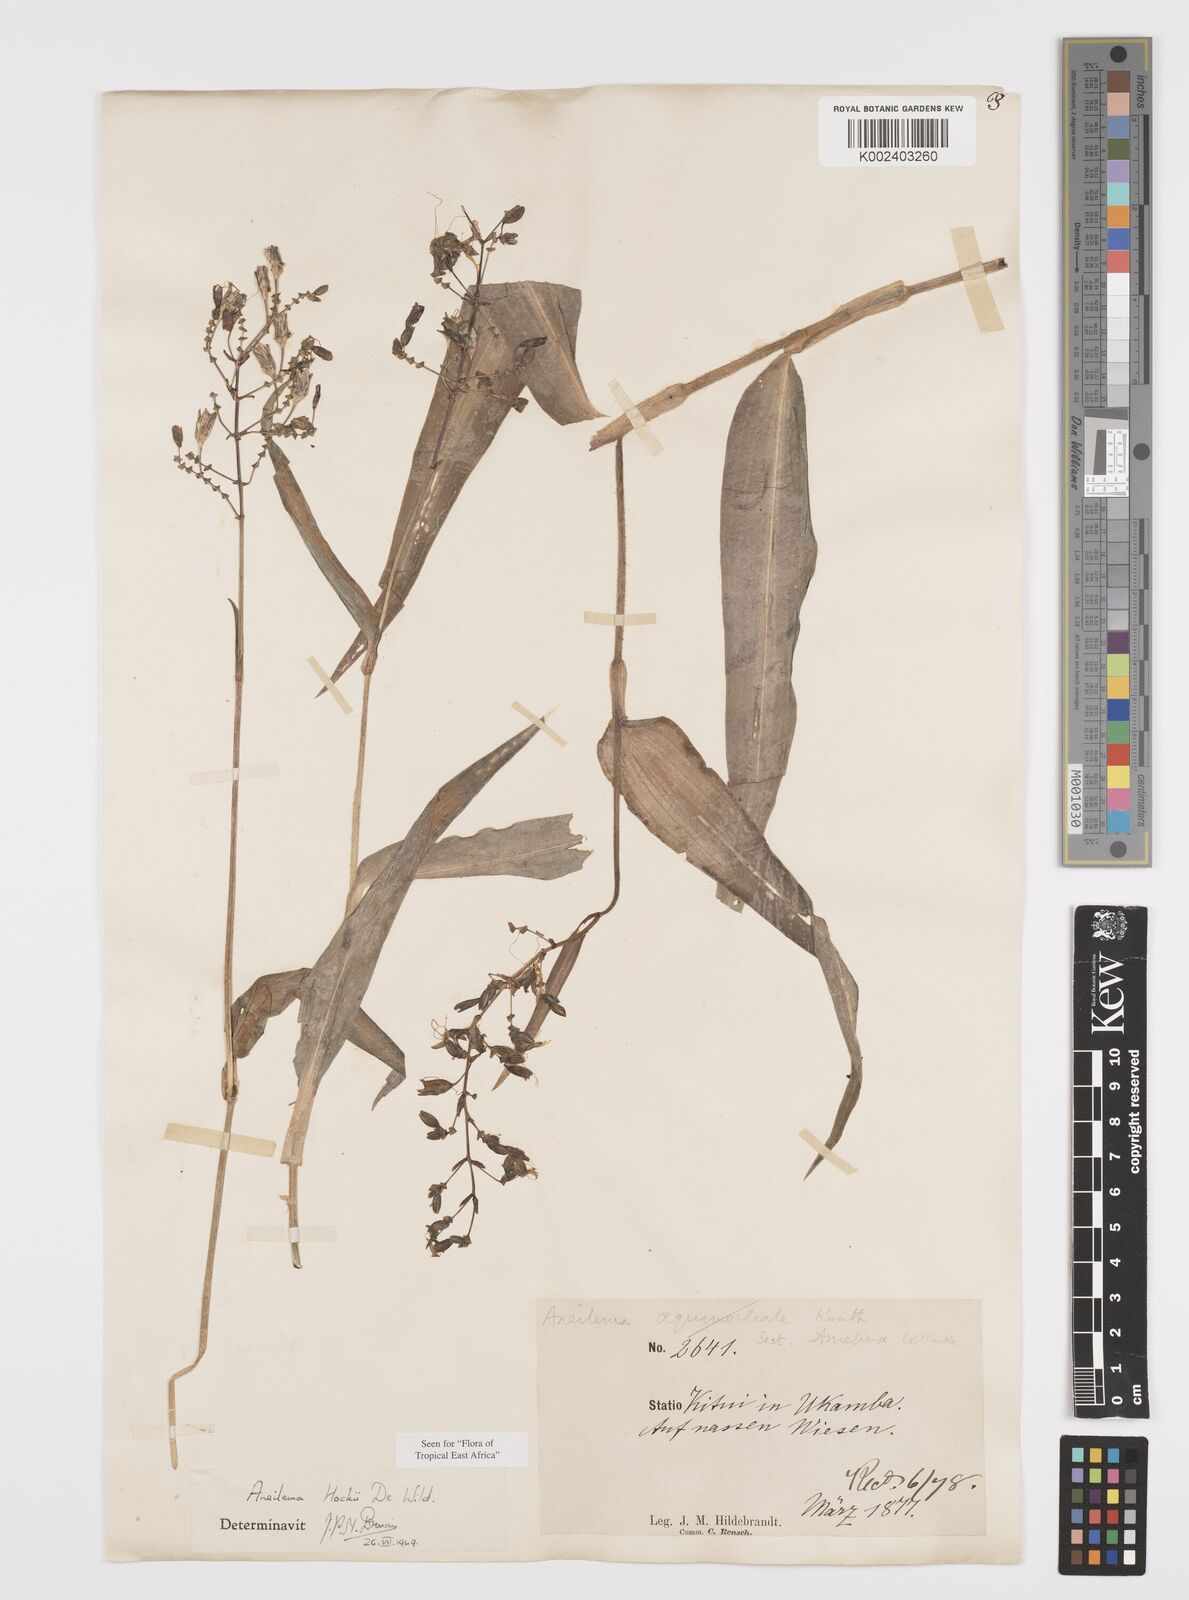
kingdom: Plantae
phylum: Tracheophyta
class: Liliopsida
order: Commelinales
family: Commelinaceae
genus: Aneilema
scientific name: Aneilema hockii
